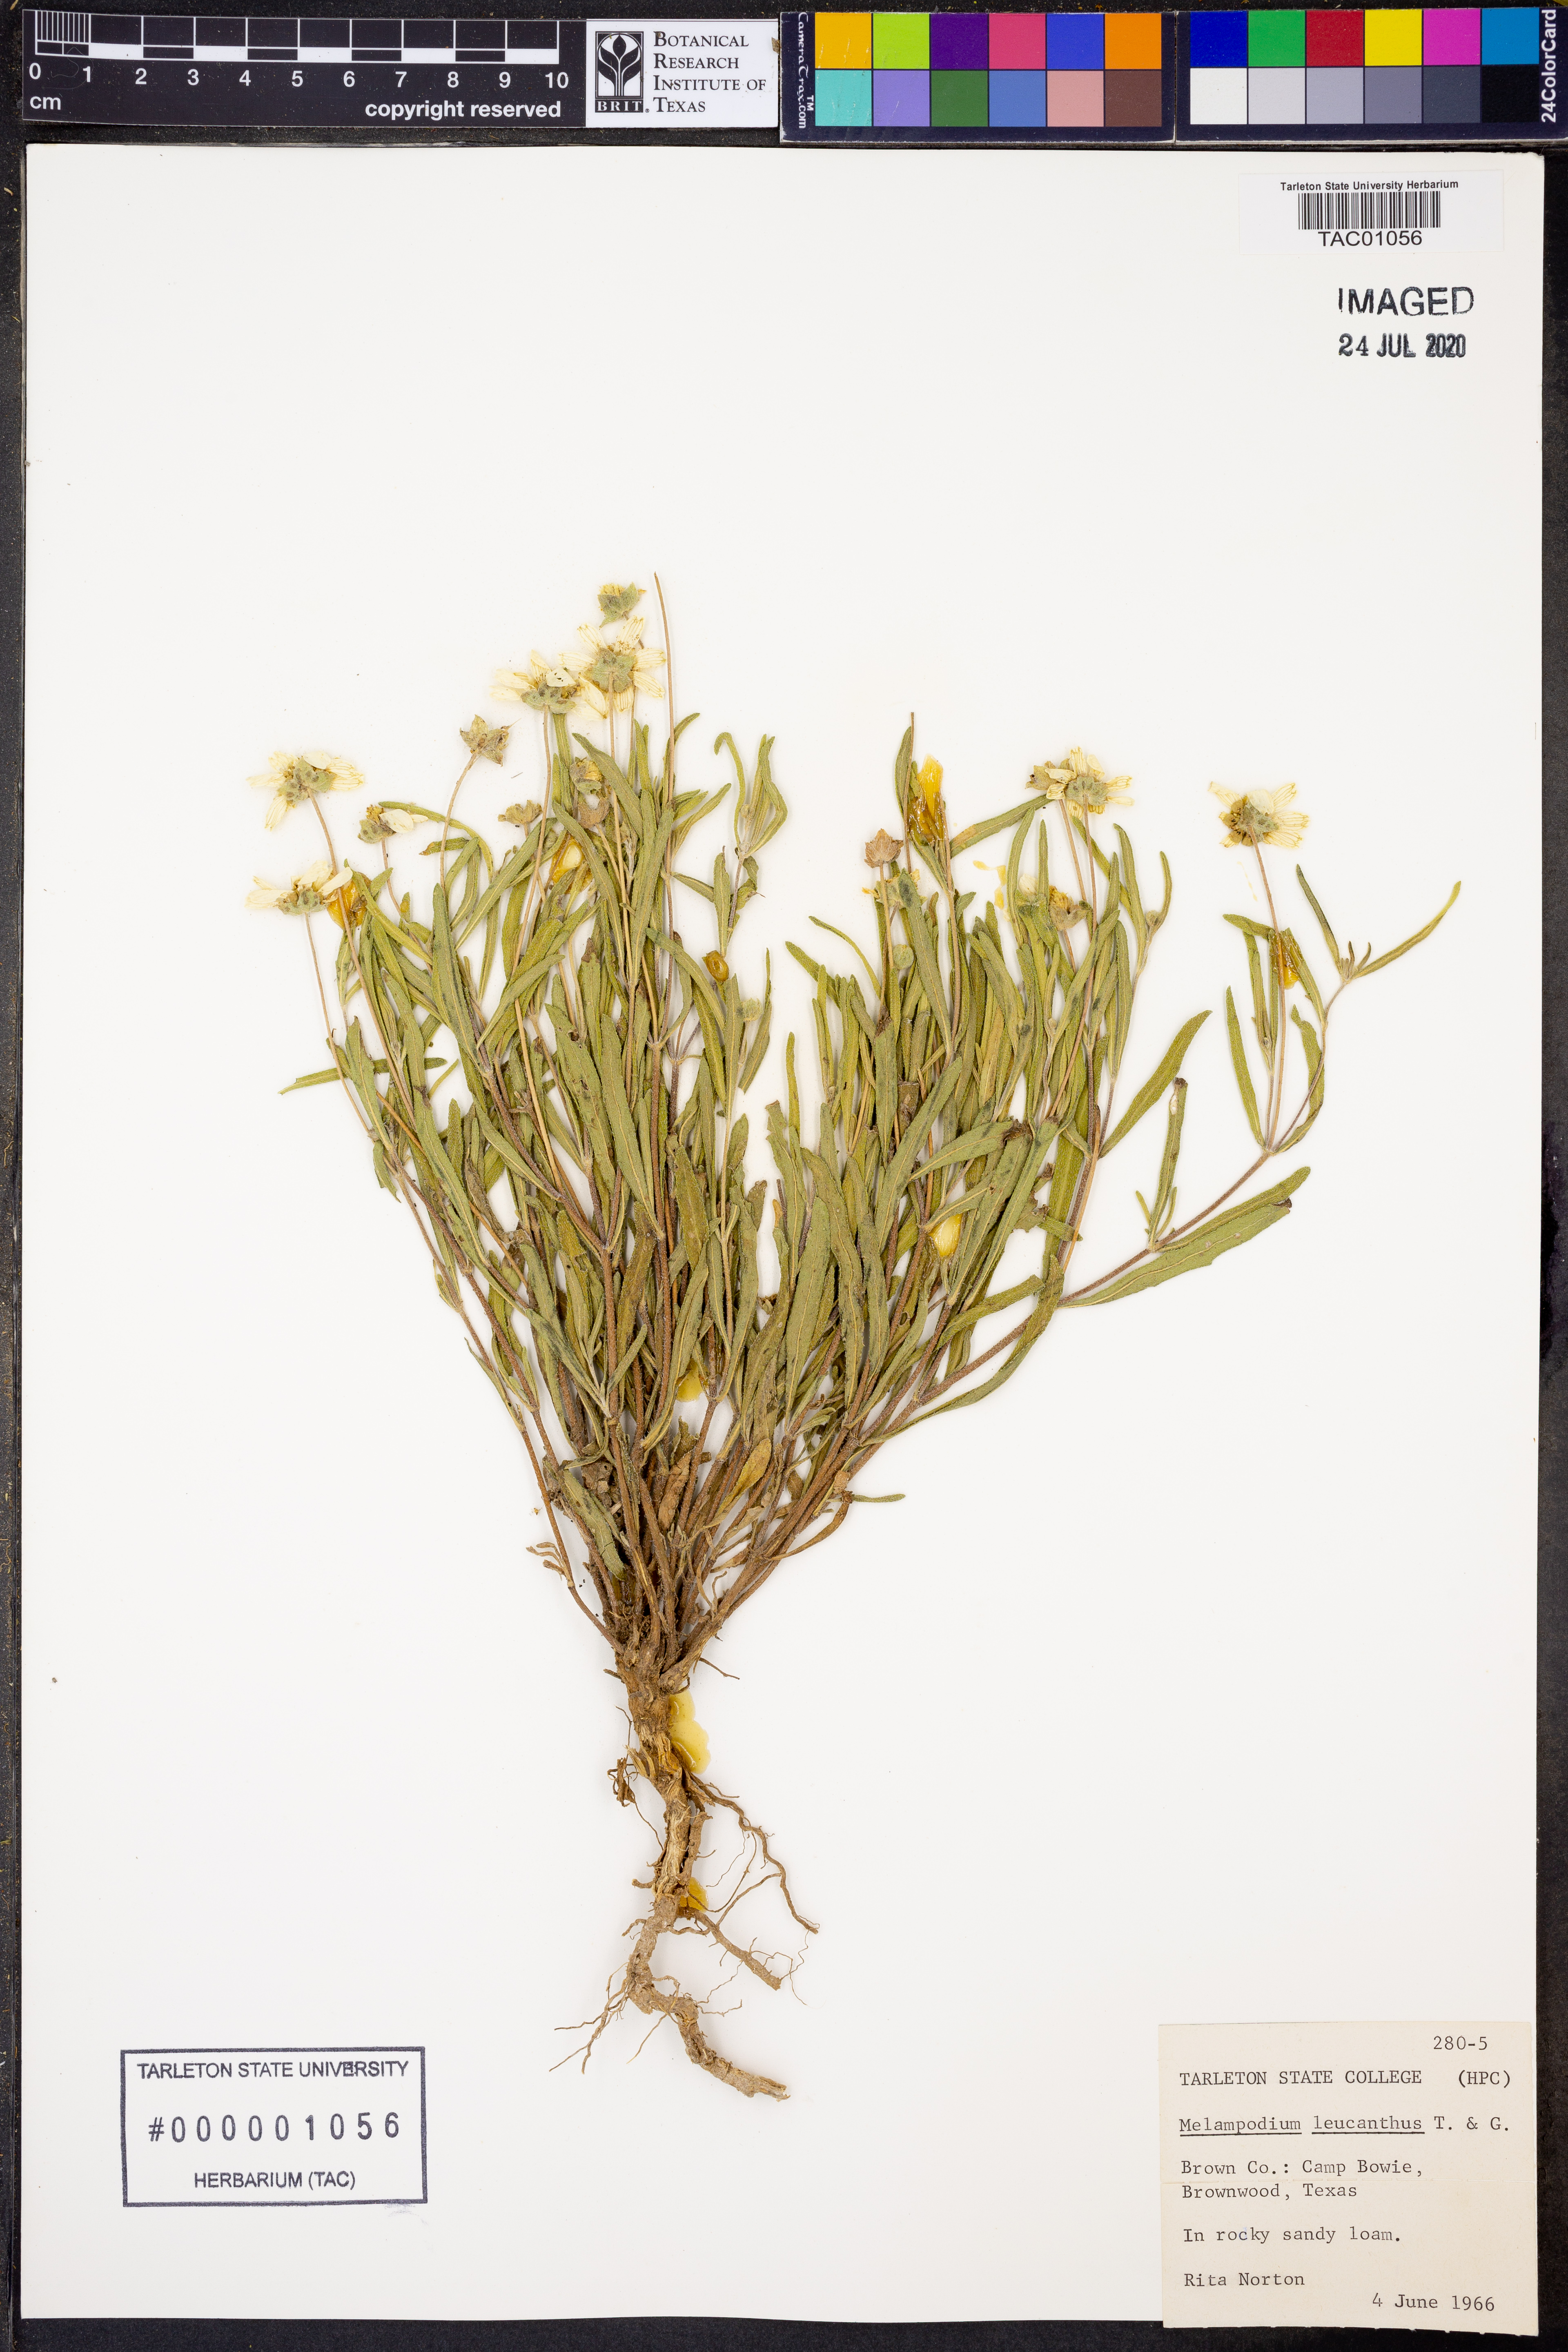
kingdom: Plantae
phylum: Tracheophyta
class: Magnoliopsida
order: Asterales
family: Asteraceae
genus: Melampodium
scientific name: Melampodium leucanthum
